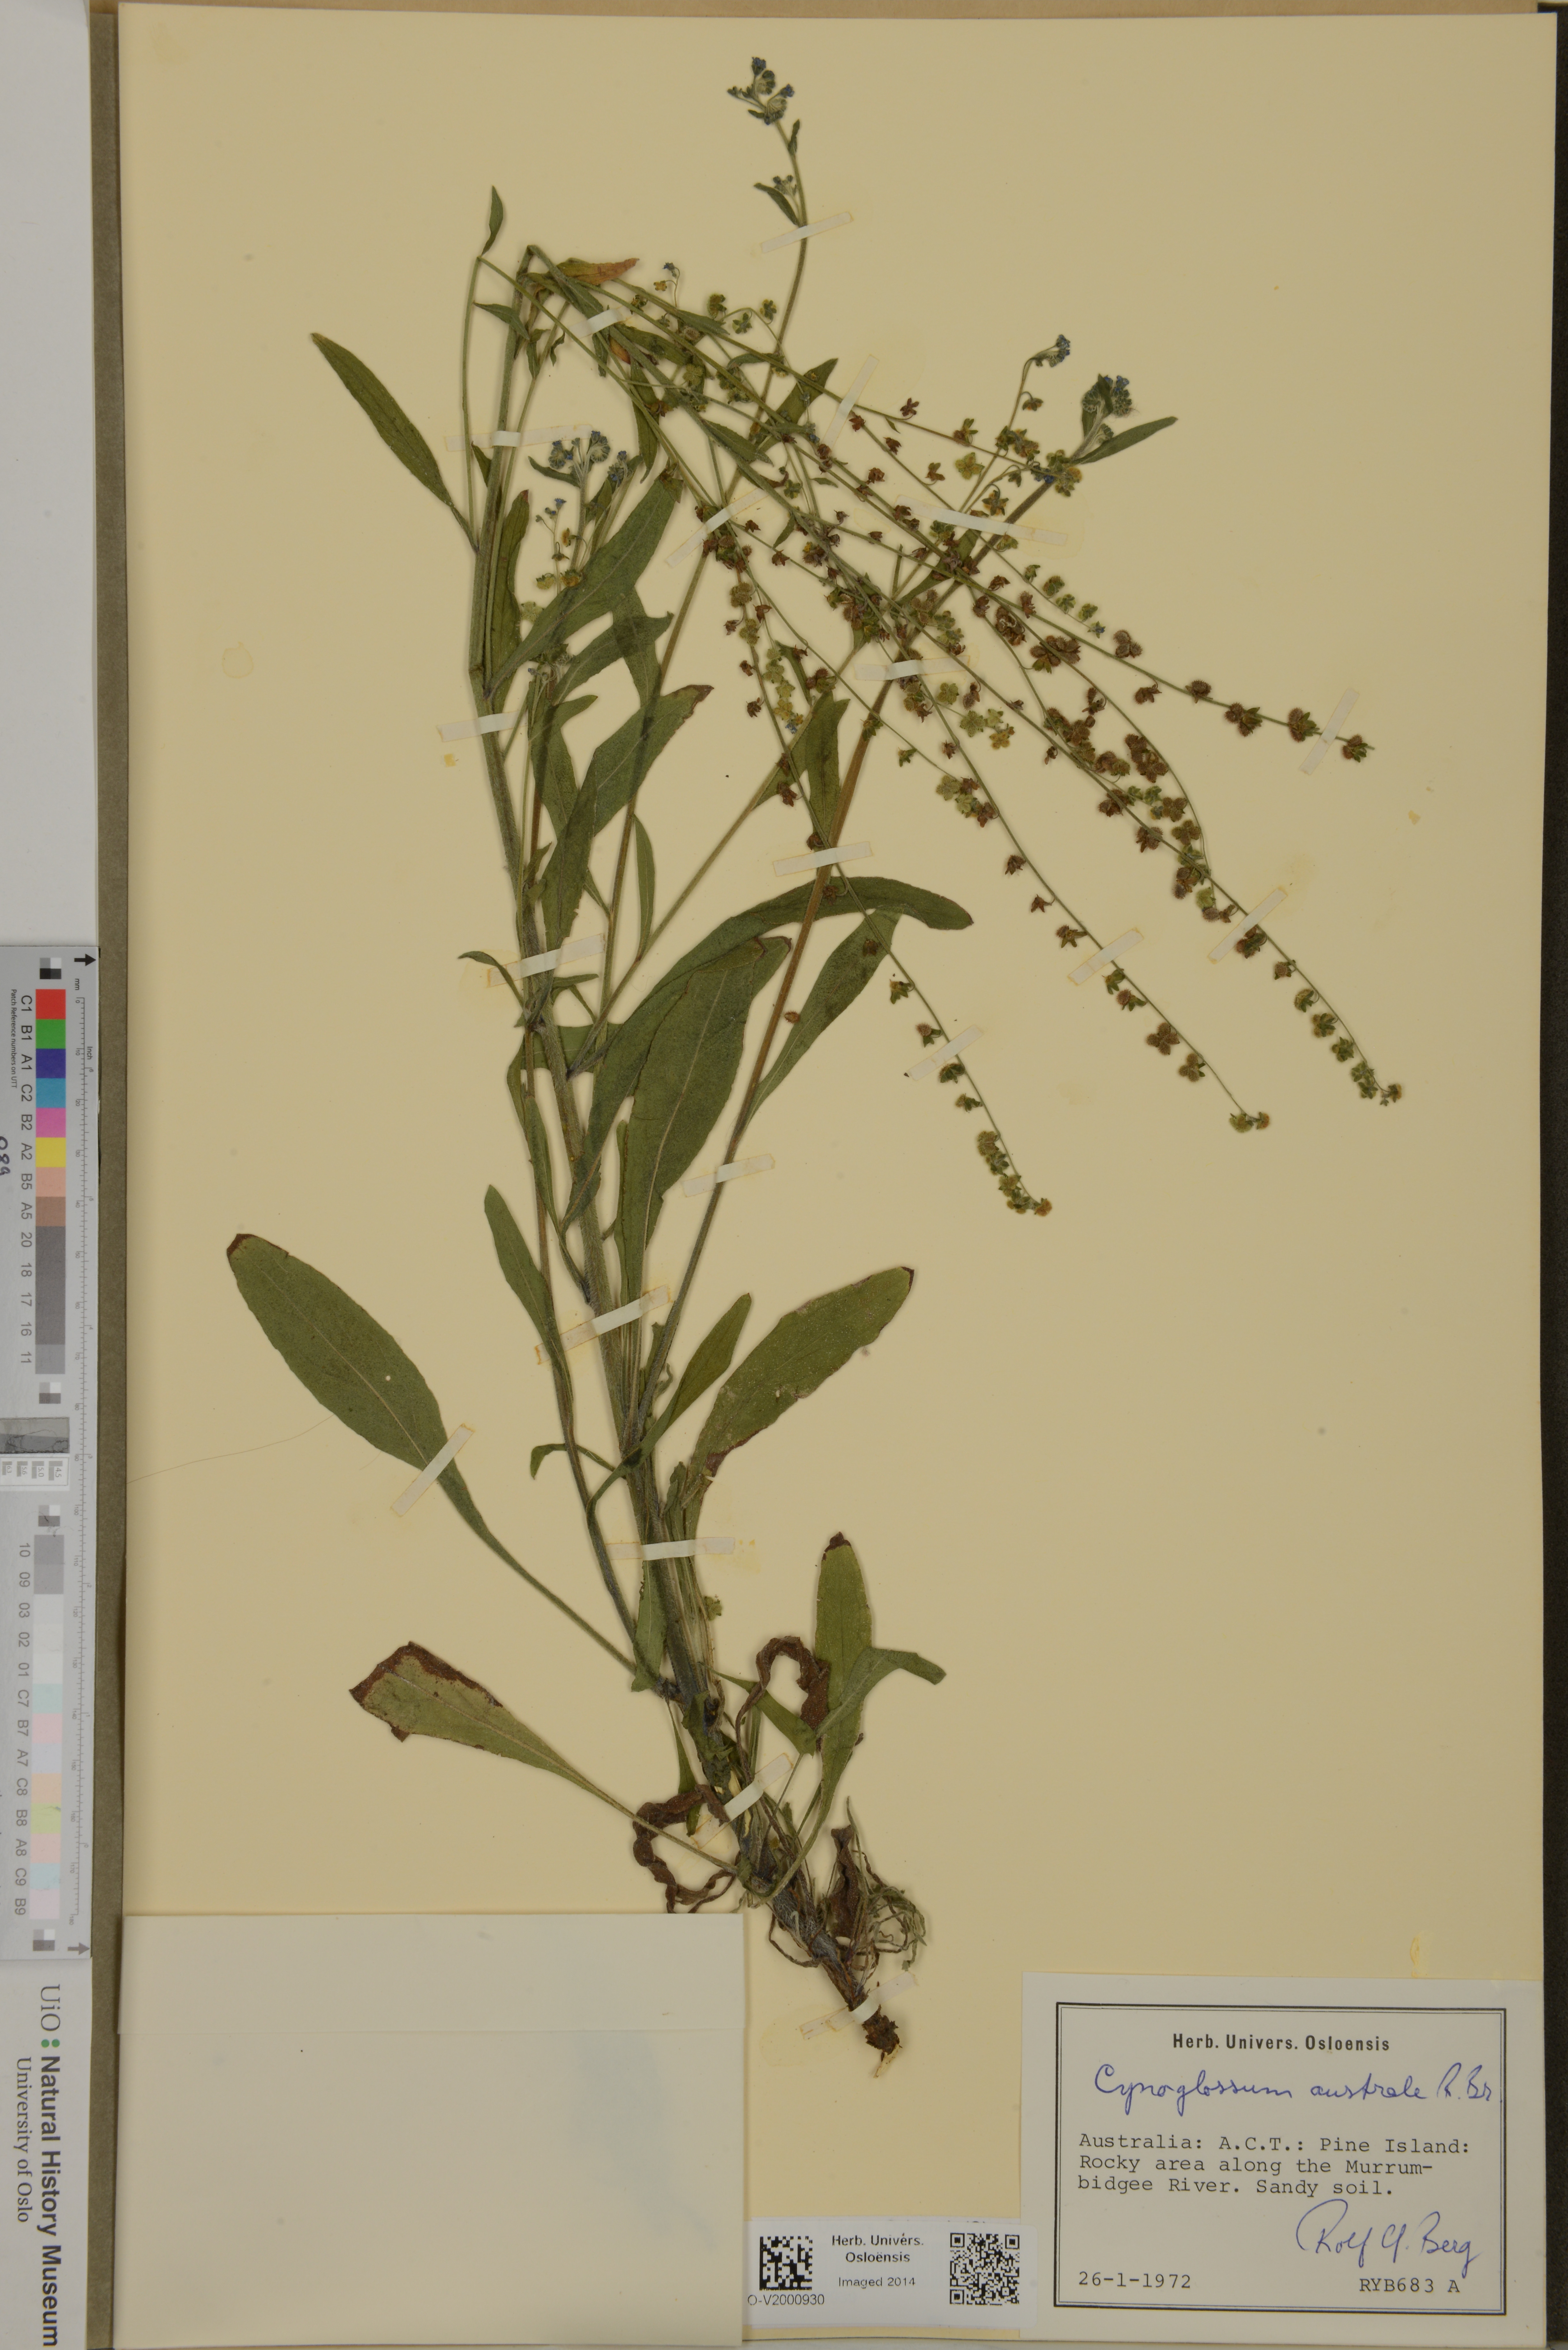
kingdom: Plantae
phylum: Tracheophyta
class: Magnoliopsida
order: Boraginales
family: Boraginaceae
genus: Cynoglossum
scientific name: Cynoglossum australe
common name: Australian hound's-tongue
